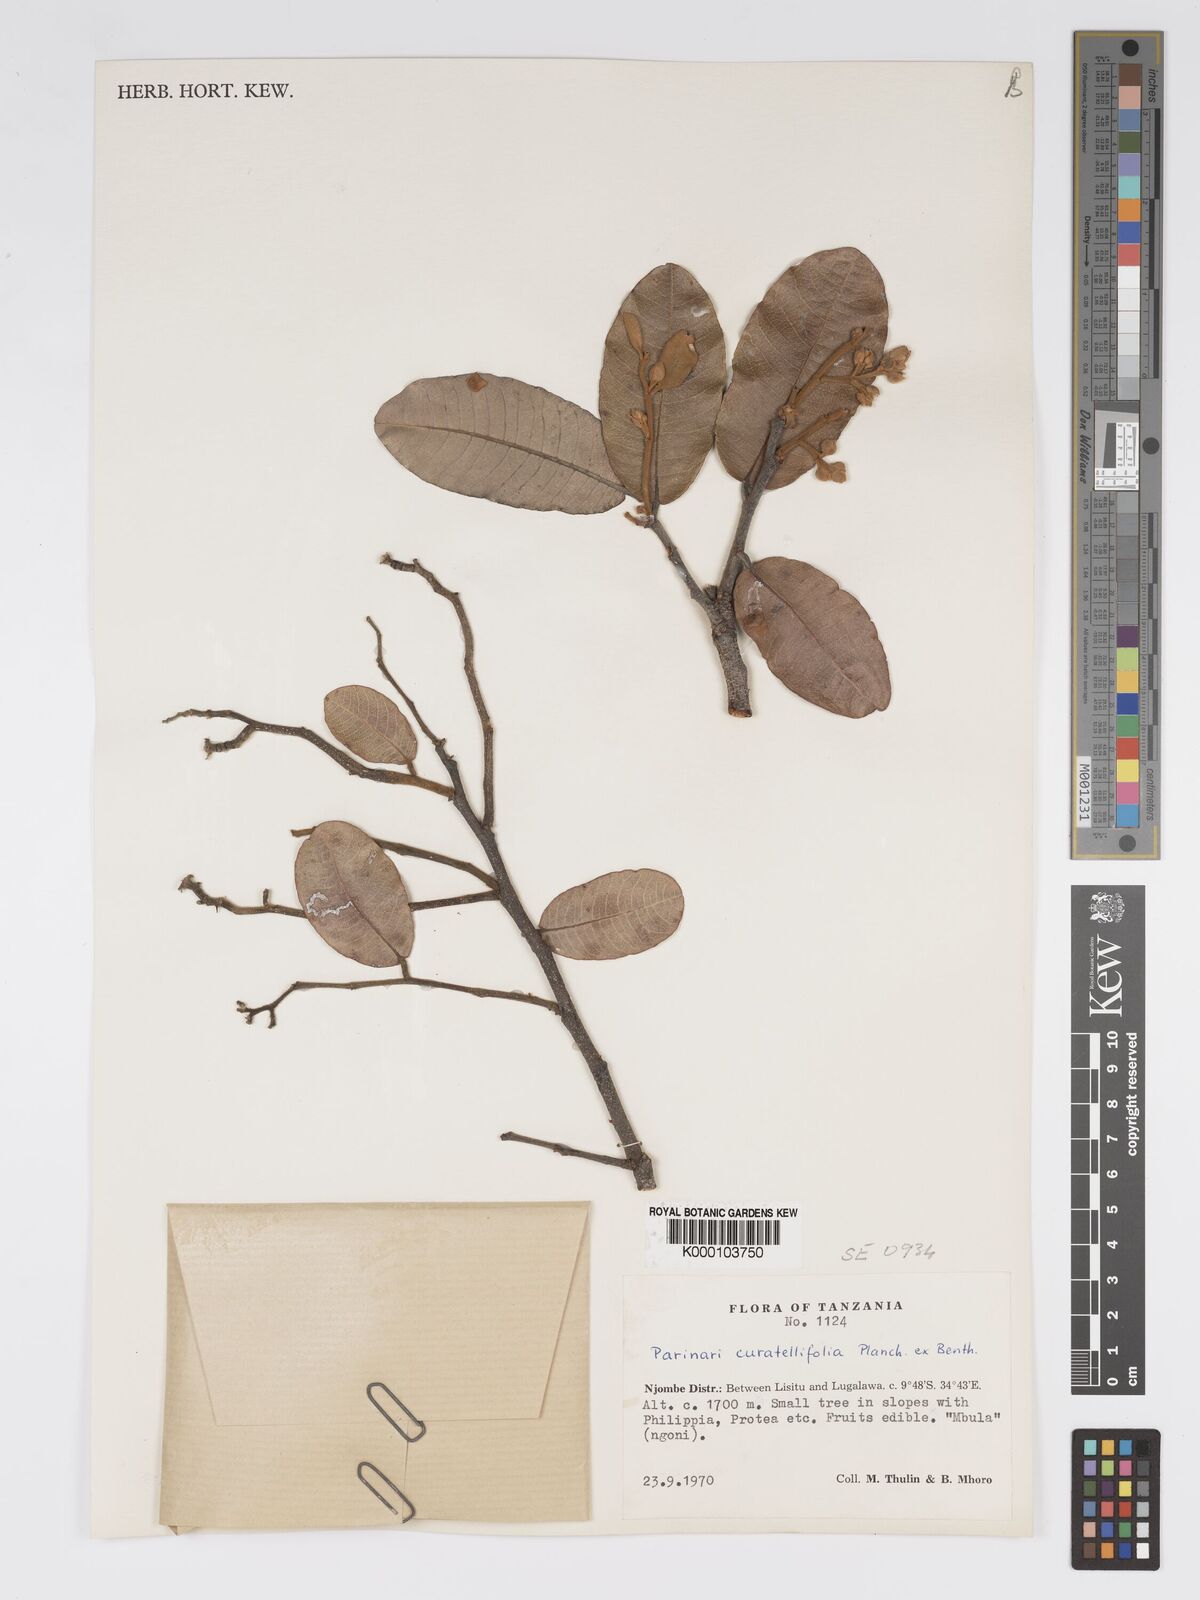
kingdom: Plantae
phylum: Tracheophyta
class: Magnoliopsida
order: Malpighiales
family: Chrysobalanaceae
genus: Parinari
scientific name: Parinari curatellifolia
